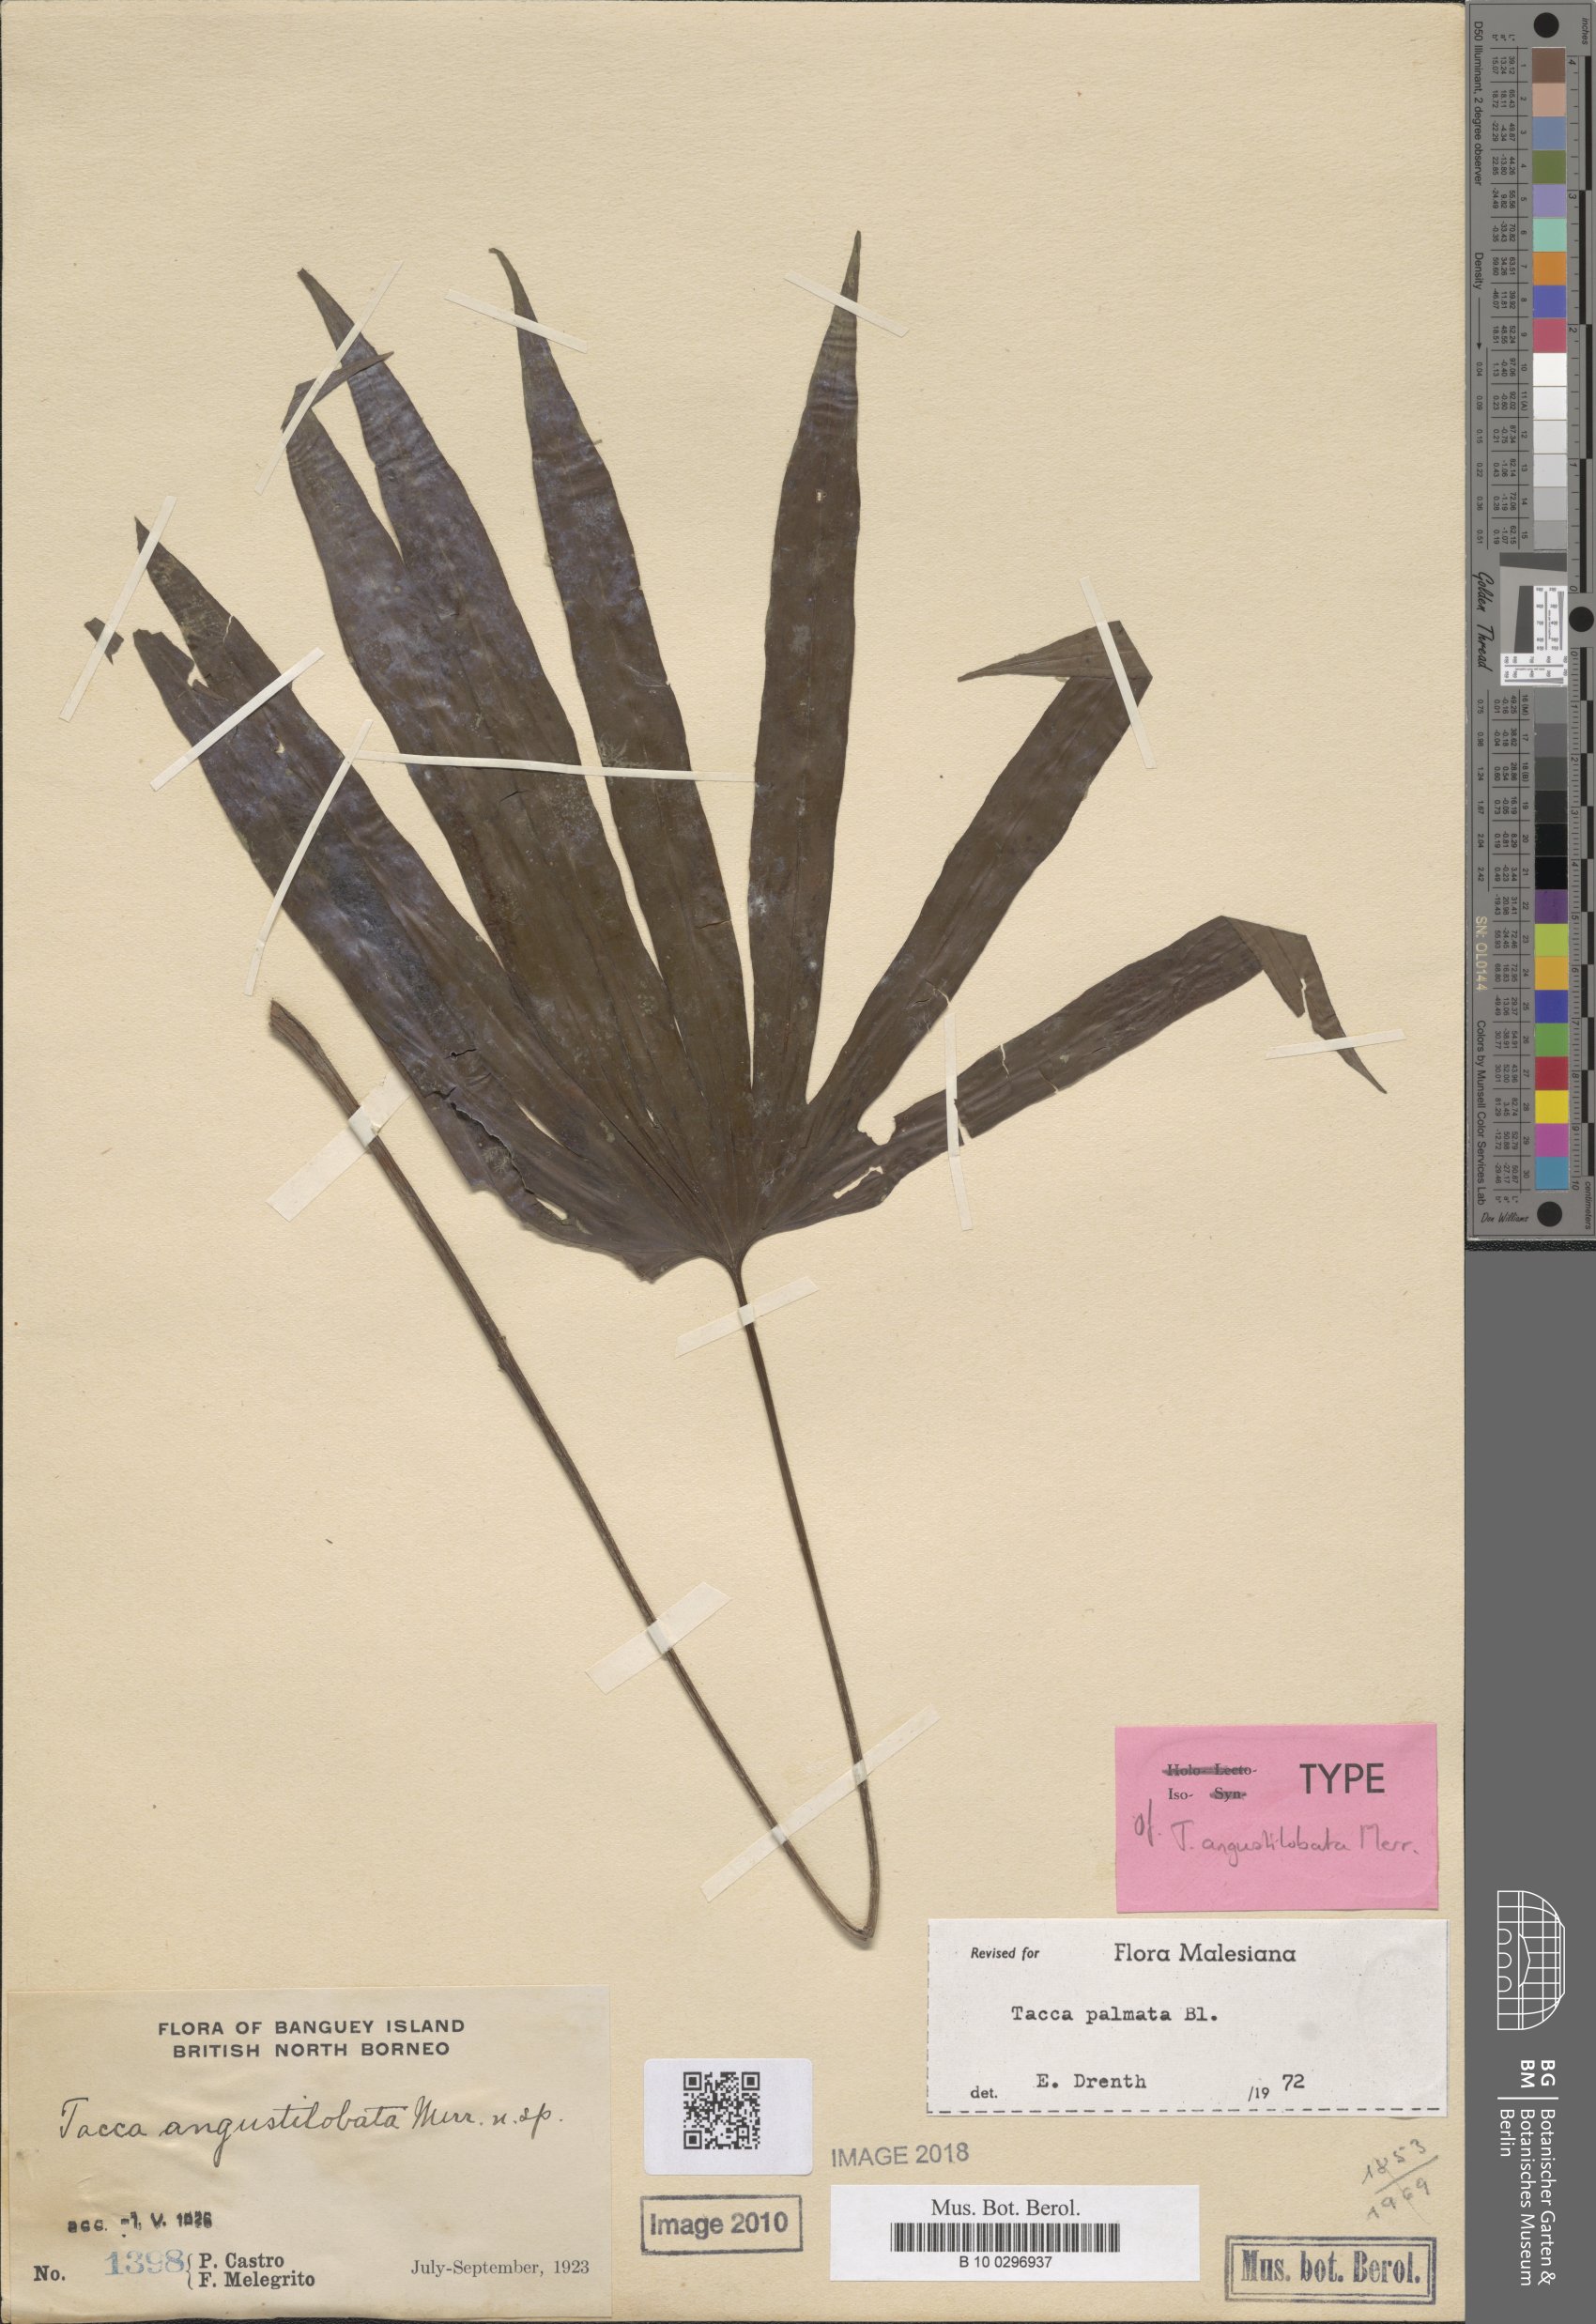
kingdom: Plantae
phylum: Tracheophyta
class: Liliopsida
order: Dioscoreales
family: Dioscoreaceae
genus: Tacca
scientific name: Tacca palmata
